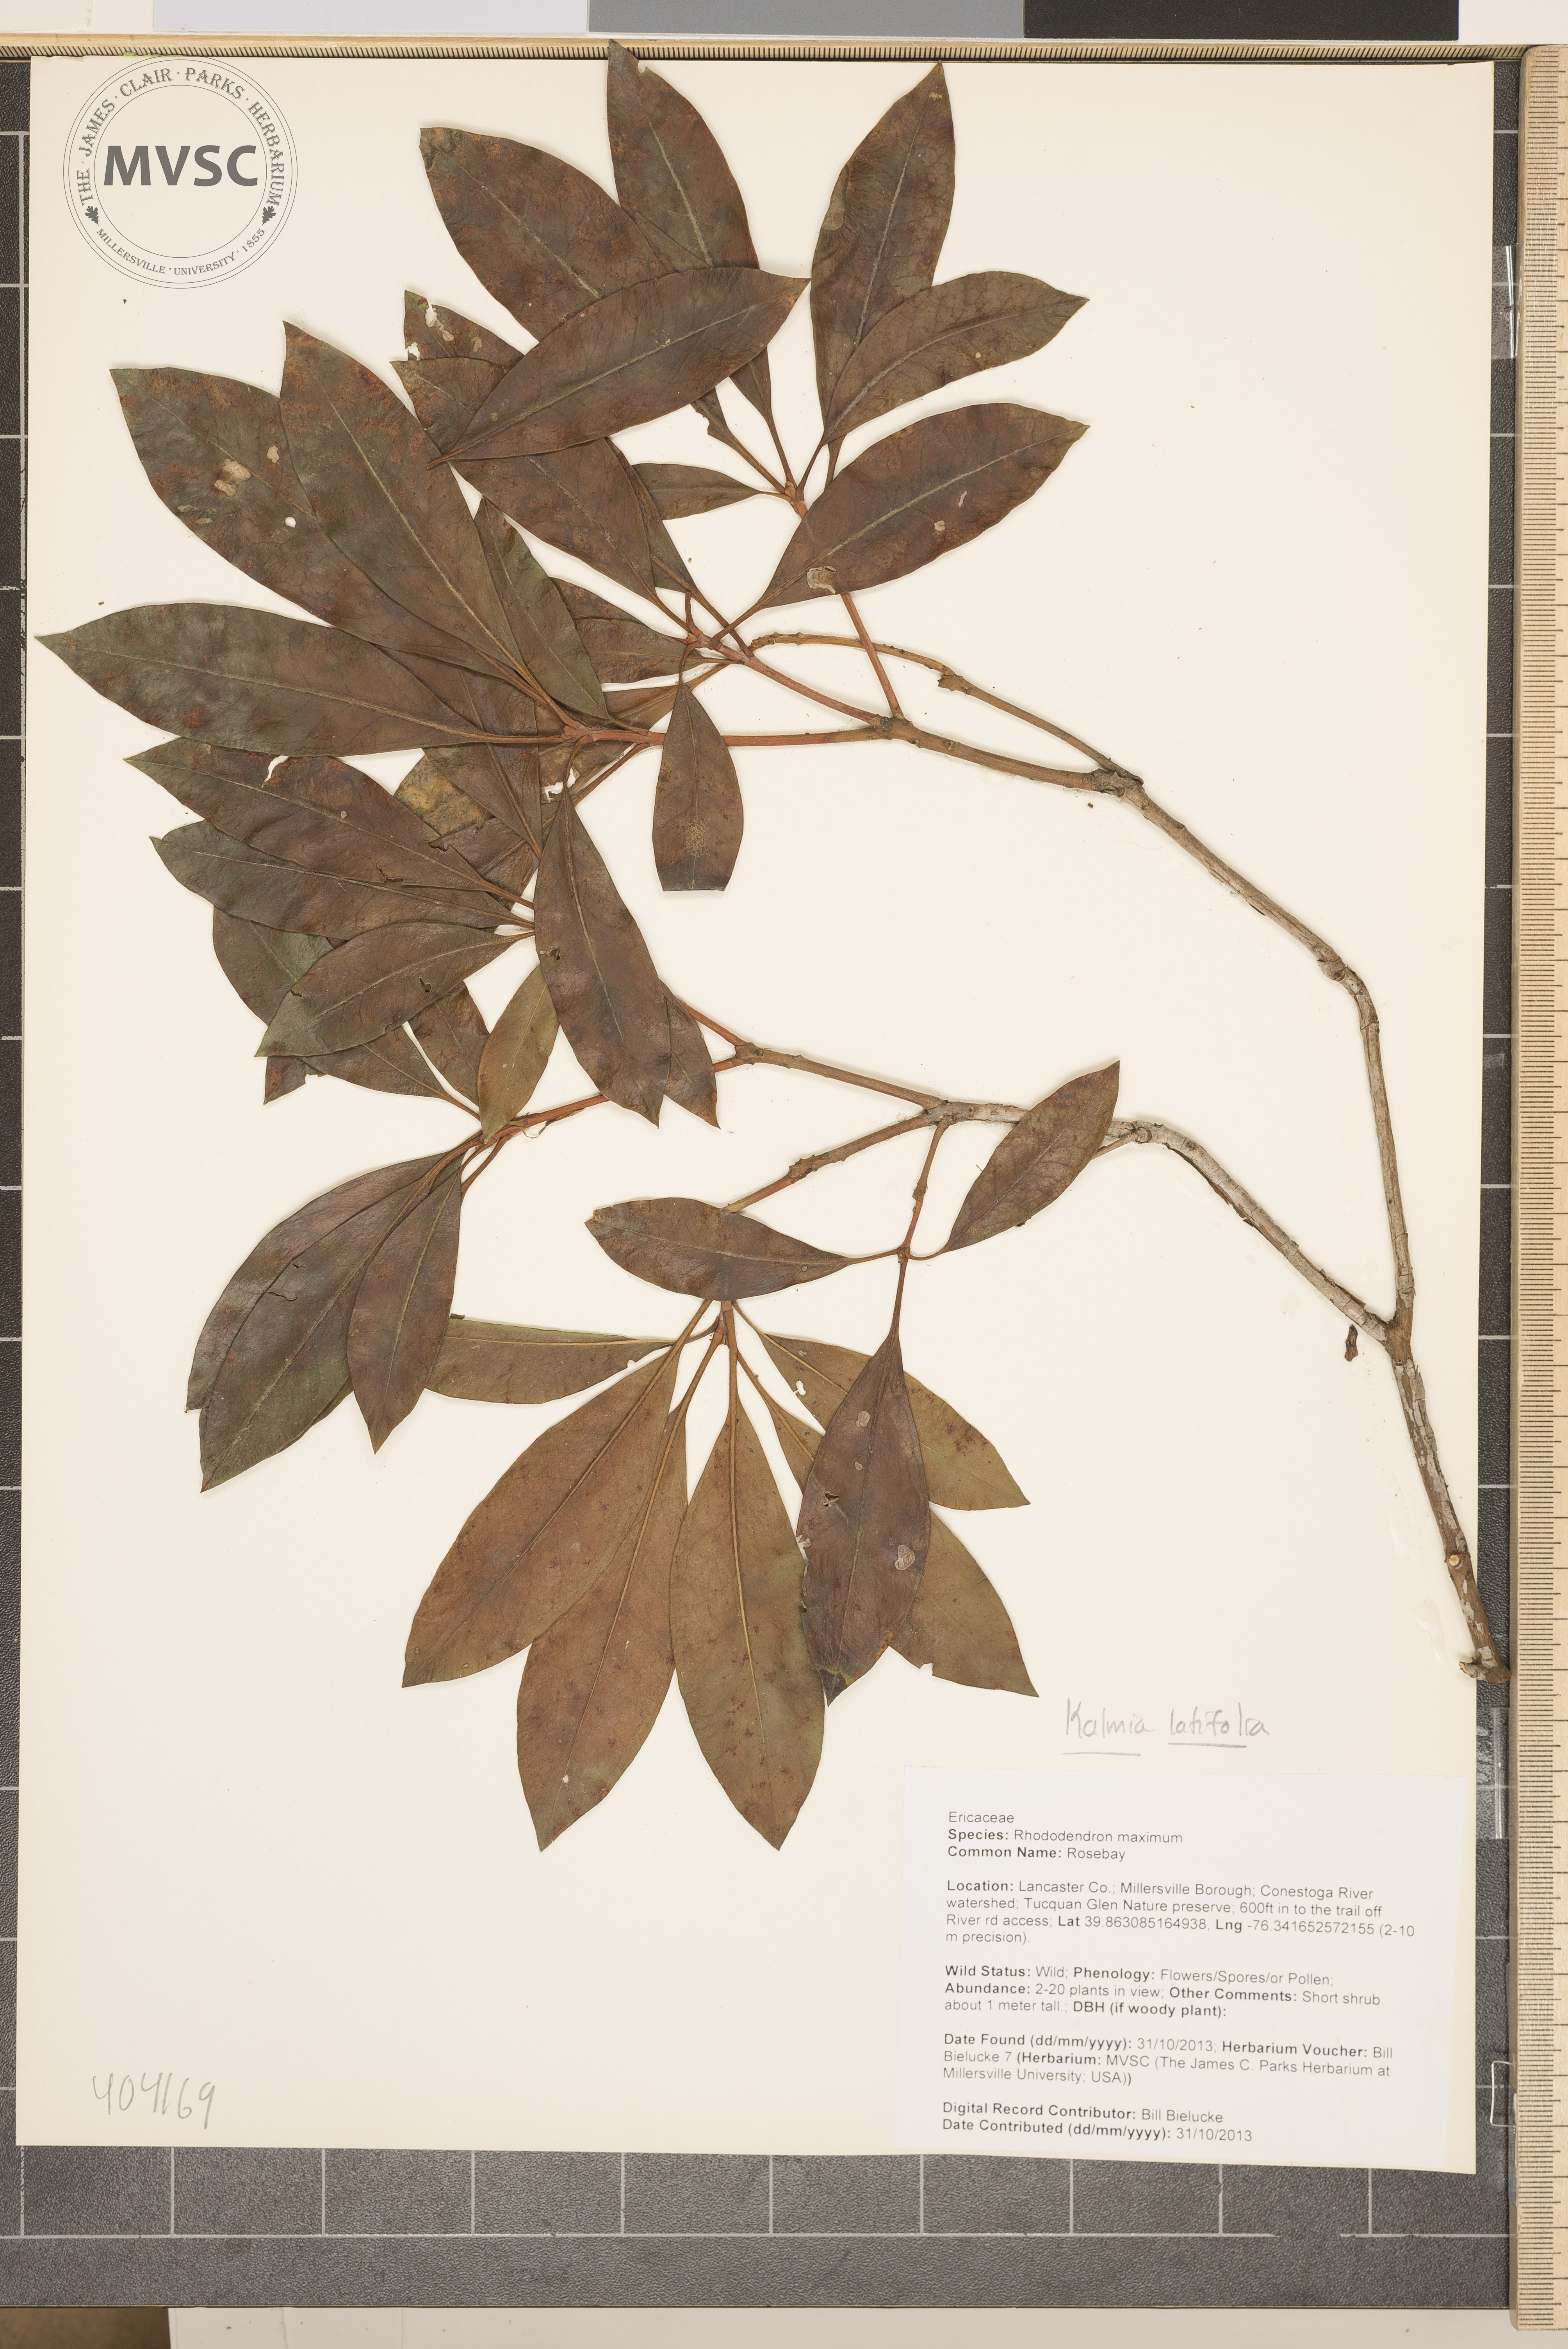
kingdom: Plantae
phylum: Tracheophyta
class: Magnoliopsida
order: Ericales
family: Ericaceae
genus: Kalmia
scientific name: Kalmia latifolia
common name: Mountain-Laurel
